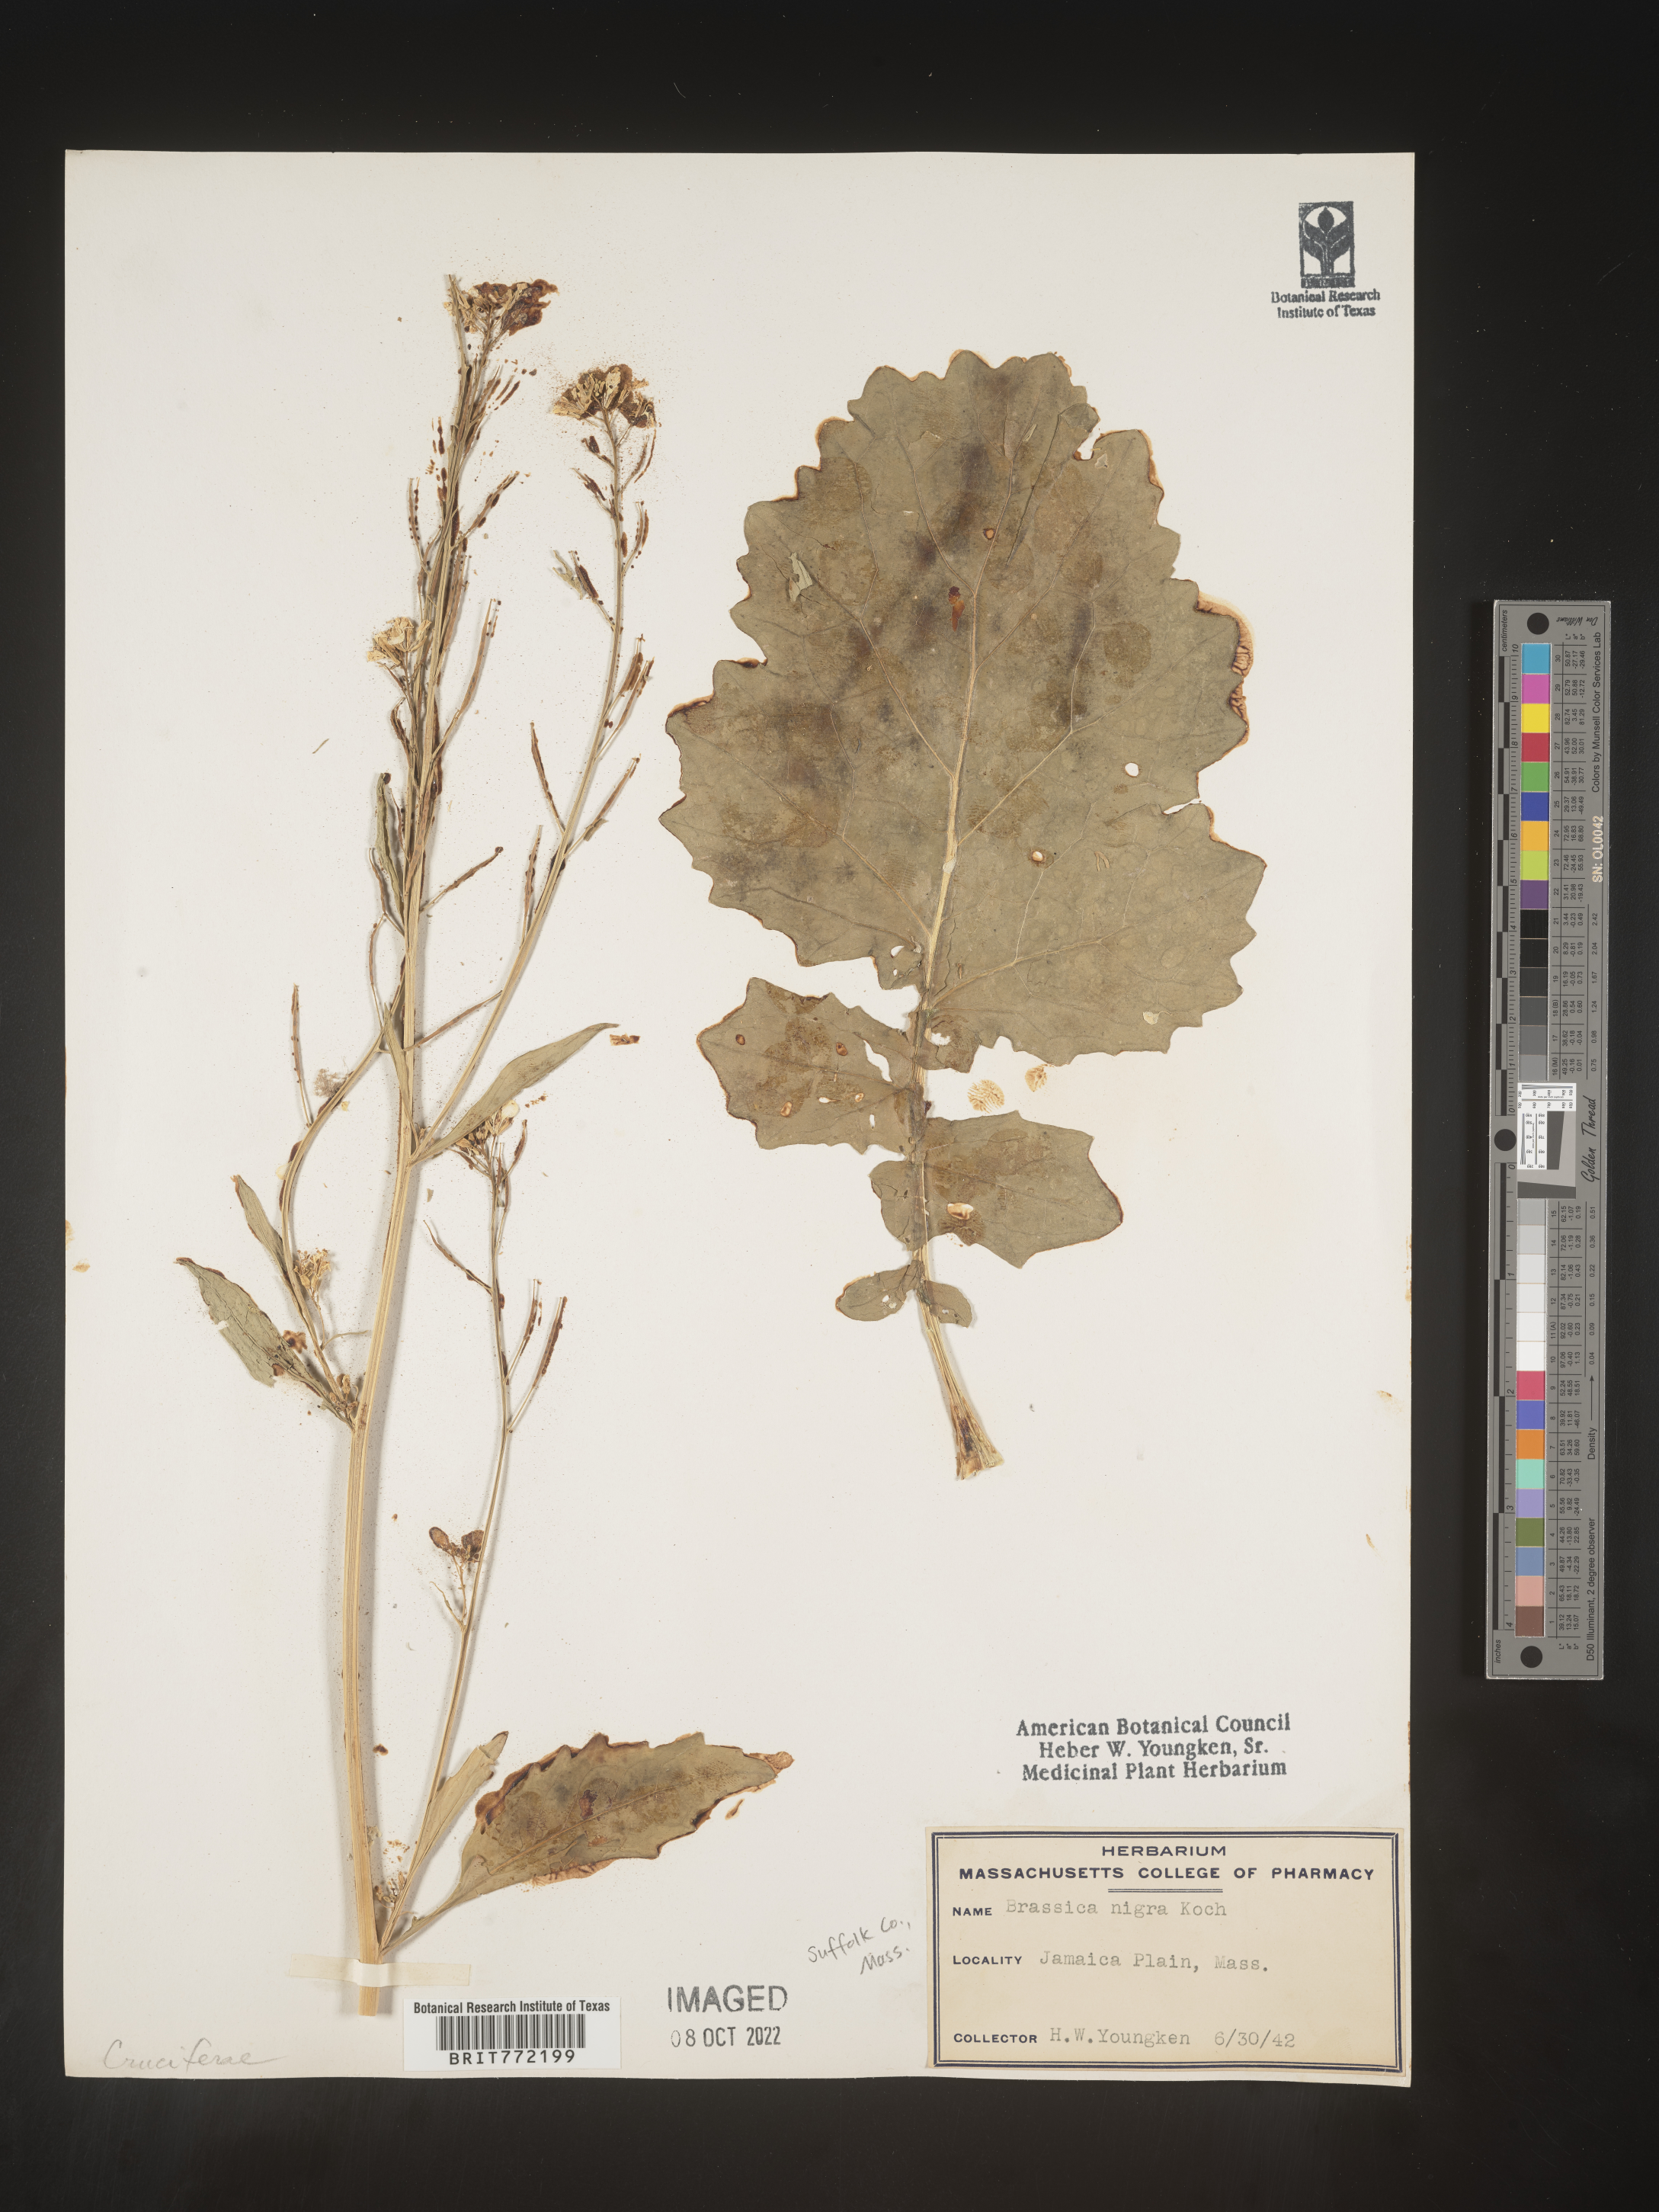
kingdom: Plantae
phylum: Tracheophyta
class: Magnoliopsida
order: Brassicales
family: Brassicaceae
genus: Brassica
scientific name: Brassica nigra
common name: Black mustard
